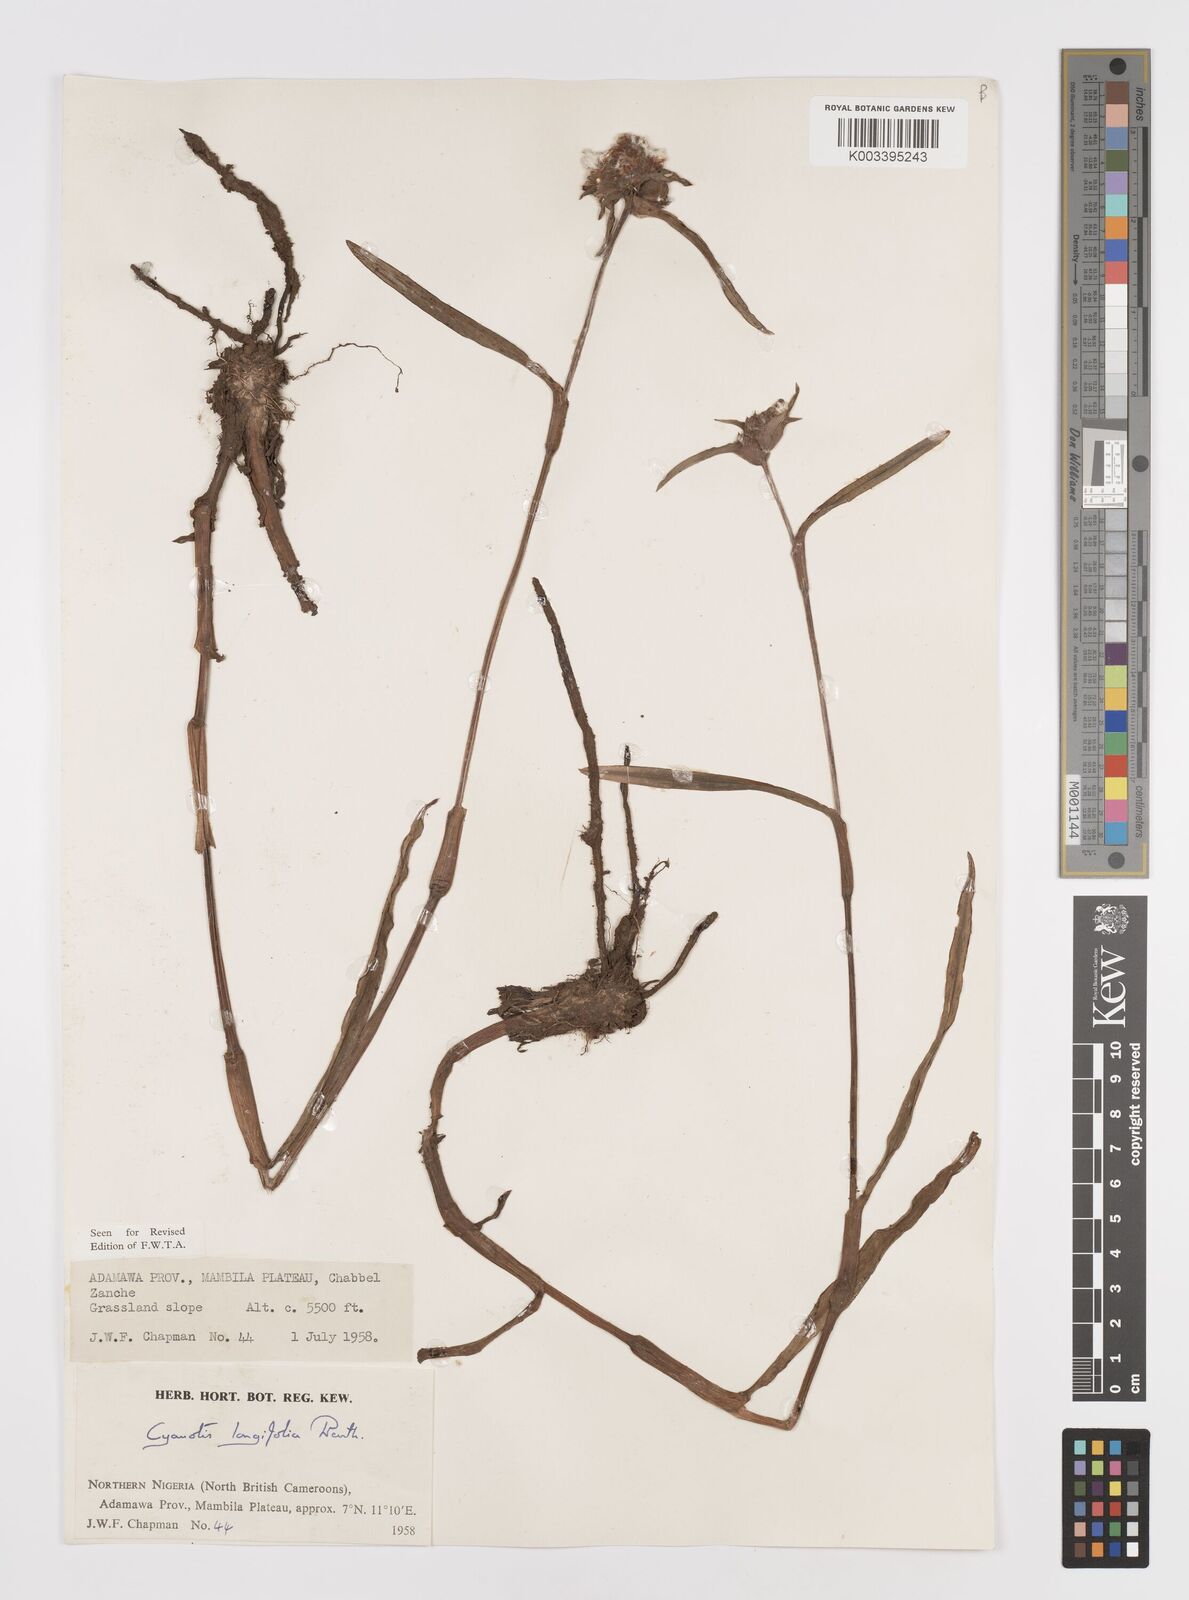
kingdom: Plantae
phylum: Tracheophyta
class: Liliopsida
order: Commelinales
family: Commelinaceae
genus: Cyanotis
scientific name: Cyanotis
